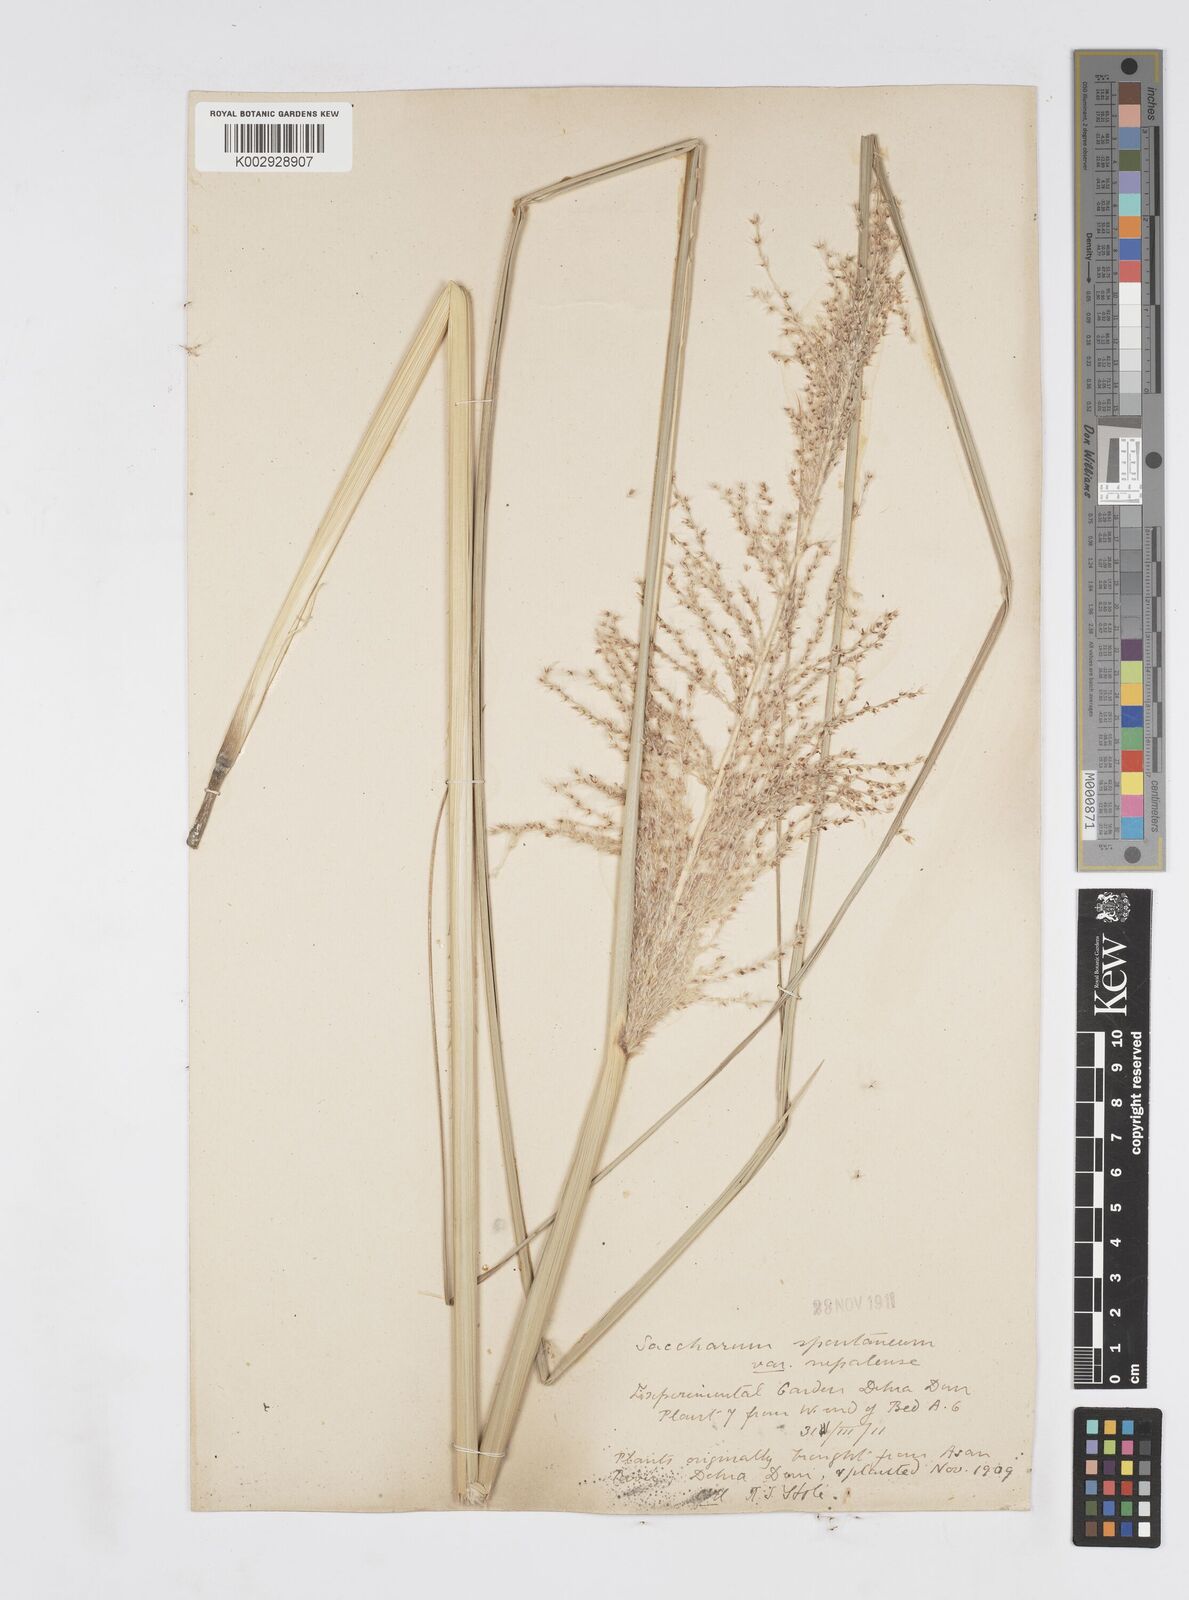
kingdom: Plantae
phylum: Tracheophyta
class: Liliopsida
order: Poales
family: Poaceae
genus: Saccharum
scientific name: Saccharum spontaneum
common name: Wild sugarcane
